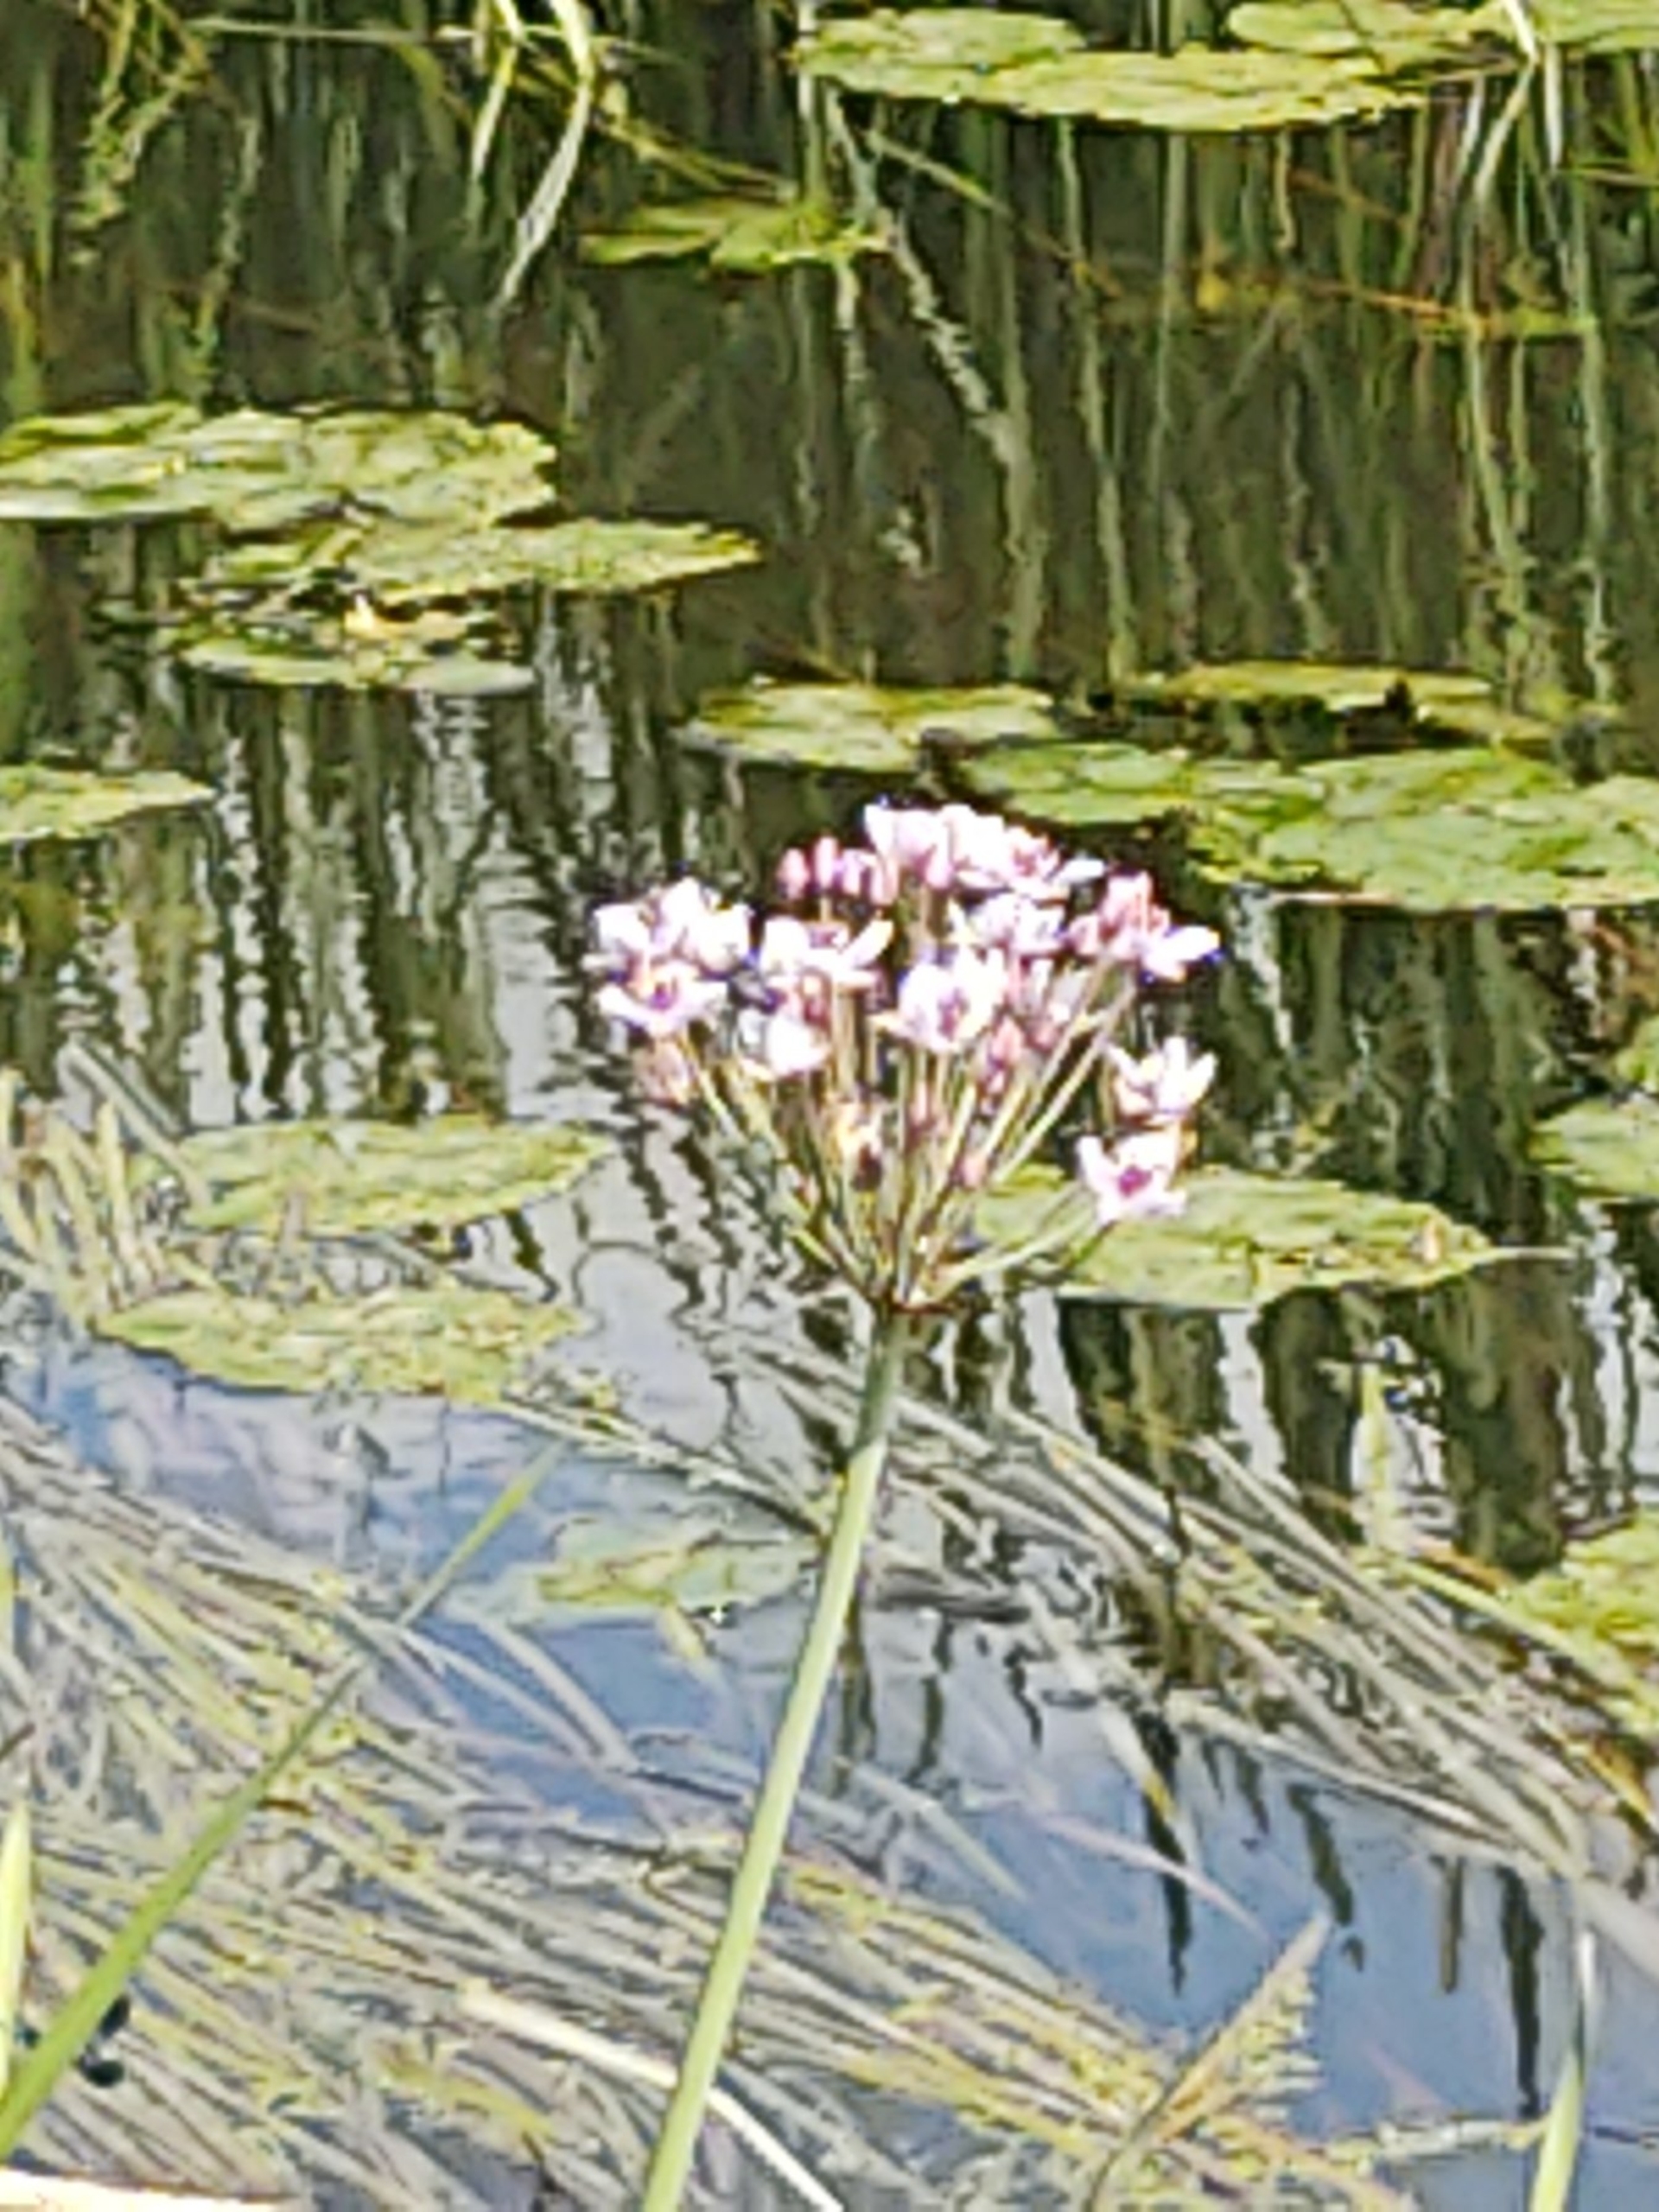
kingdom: Plantae
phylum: Tracheophyta
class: Liliopsida
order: Alismatales
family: Butomaceae
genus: Butomus
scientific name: Butomus umbellatus
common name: Brudelys
